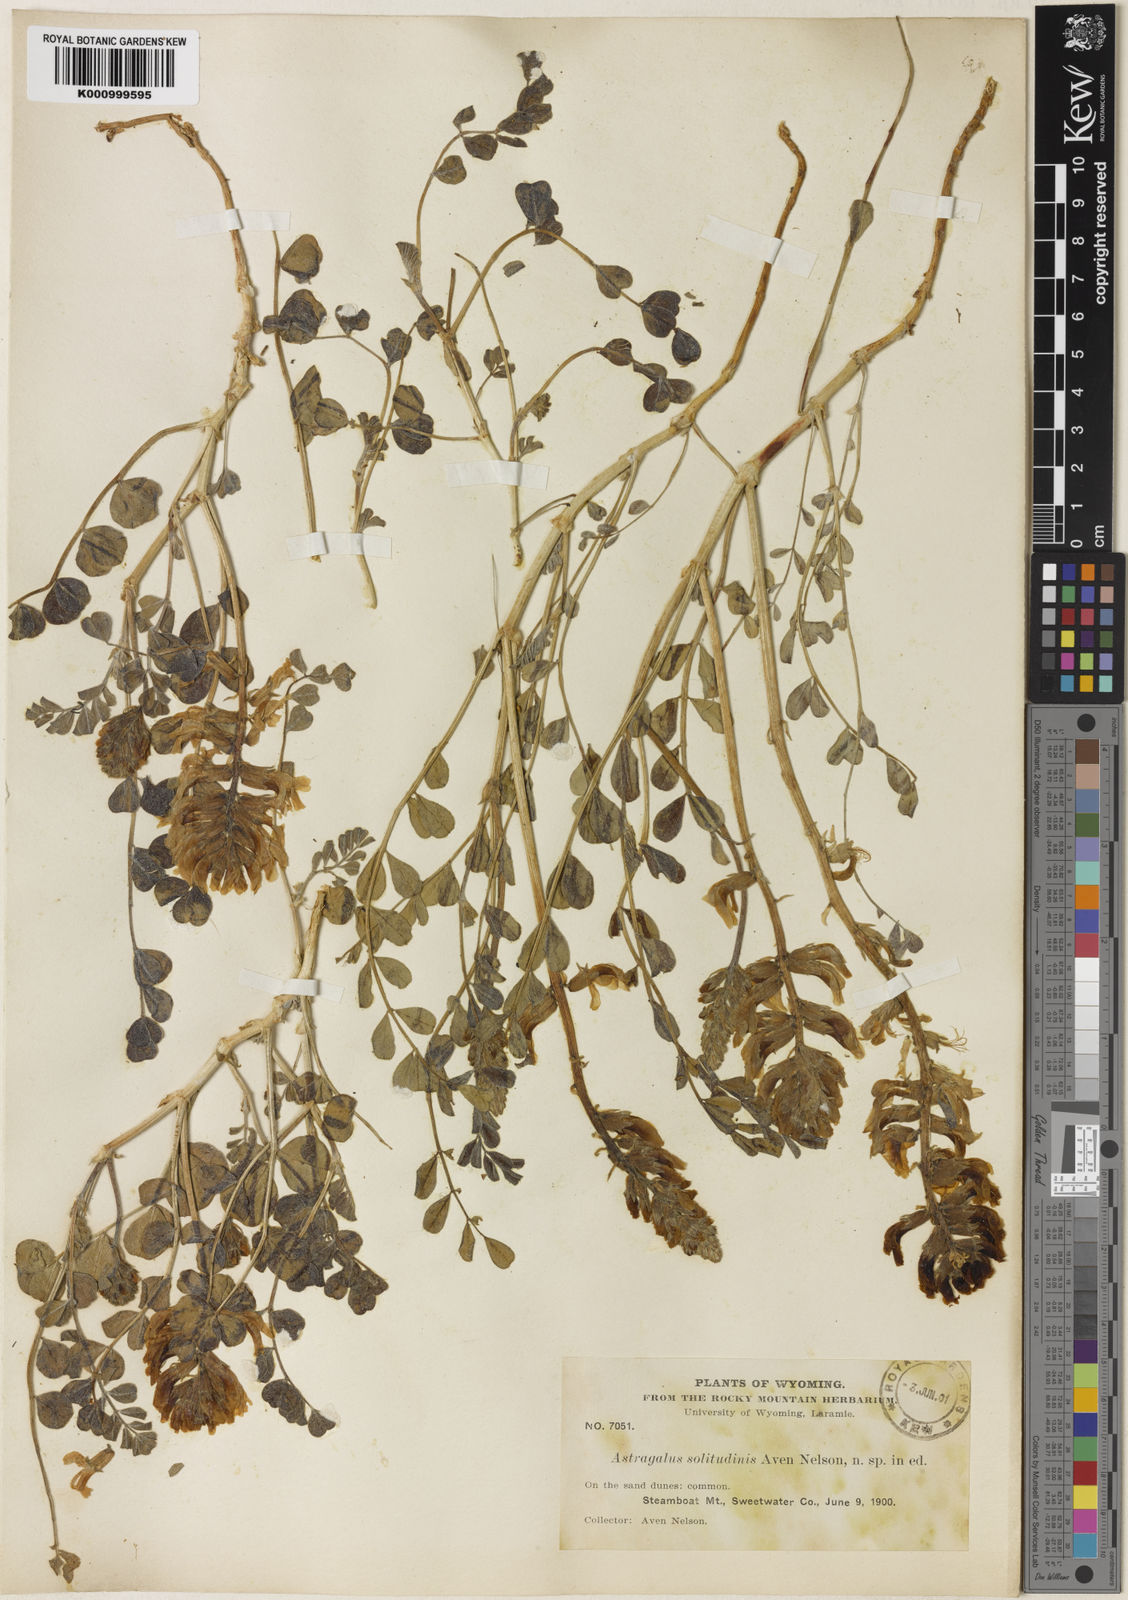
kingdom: Plantae
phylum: Tracheophyta
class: Magnoliopsida
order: Fabales
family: Fabaceae
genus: Astragalus
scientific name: Astragalus
